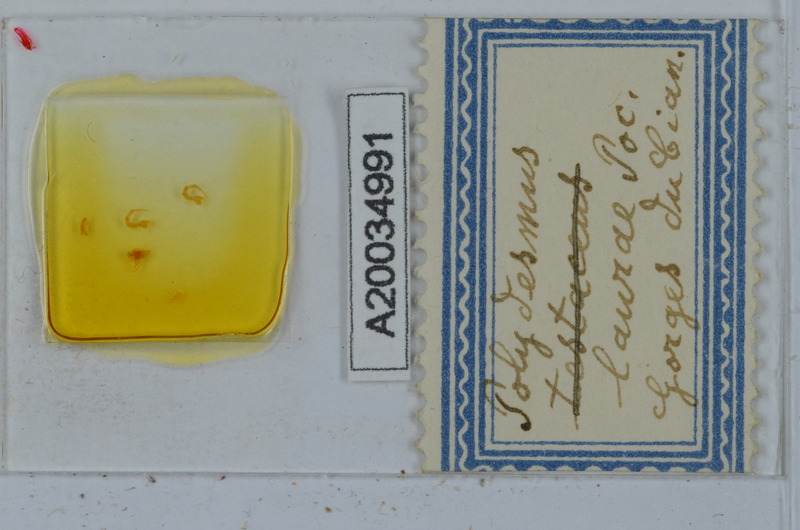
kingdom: Animalia
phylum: Arthropoda
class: Diplopoda
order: Polydesmida
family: Polydesmidae
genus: Propolydesmus
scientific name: Propolydesmus testaceus
